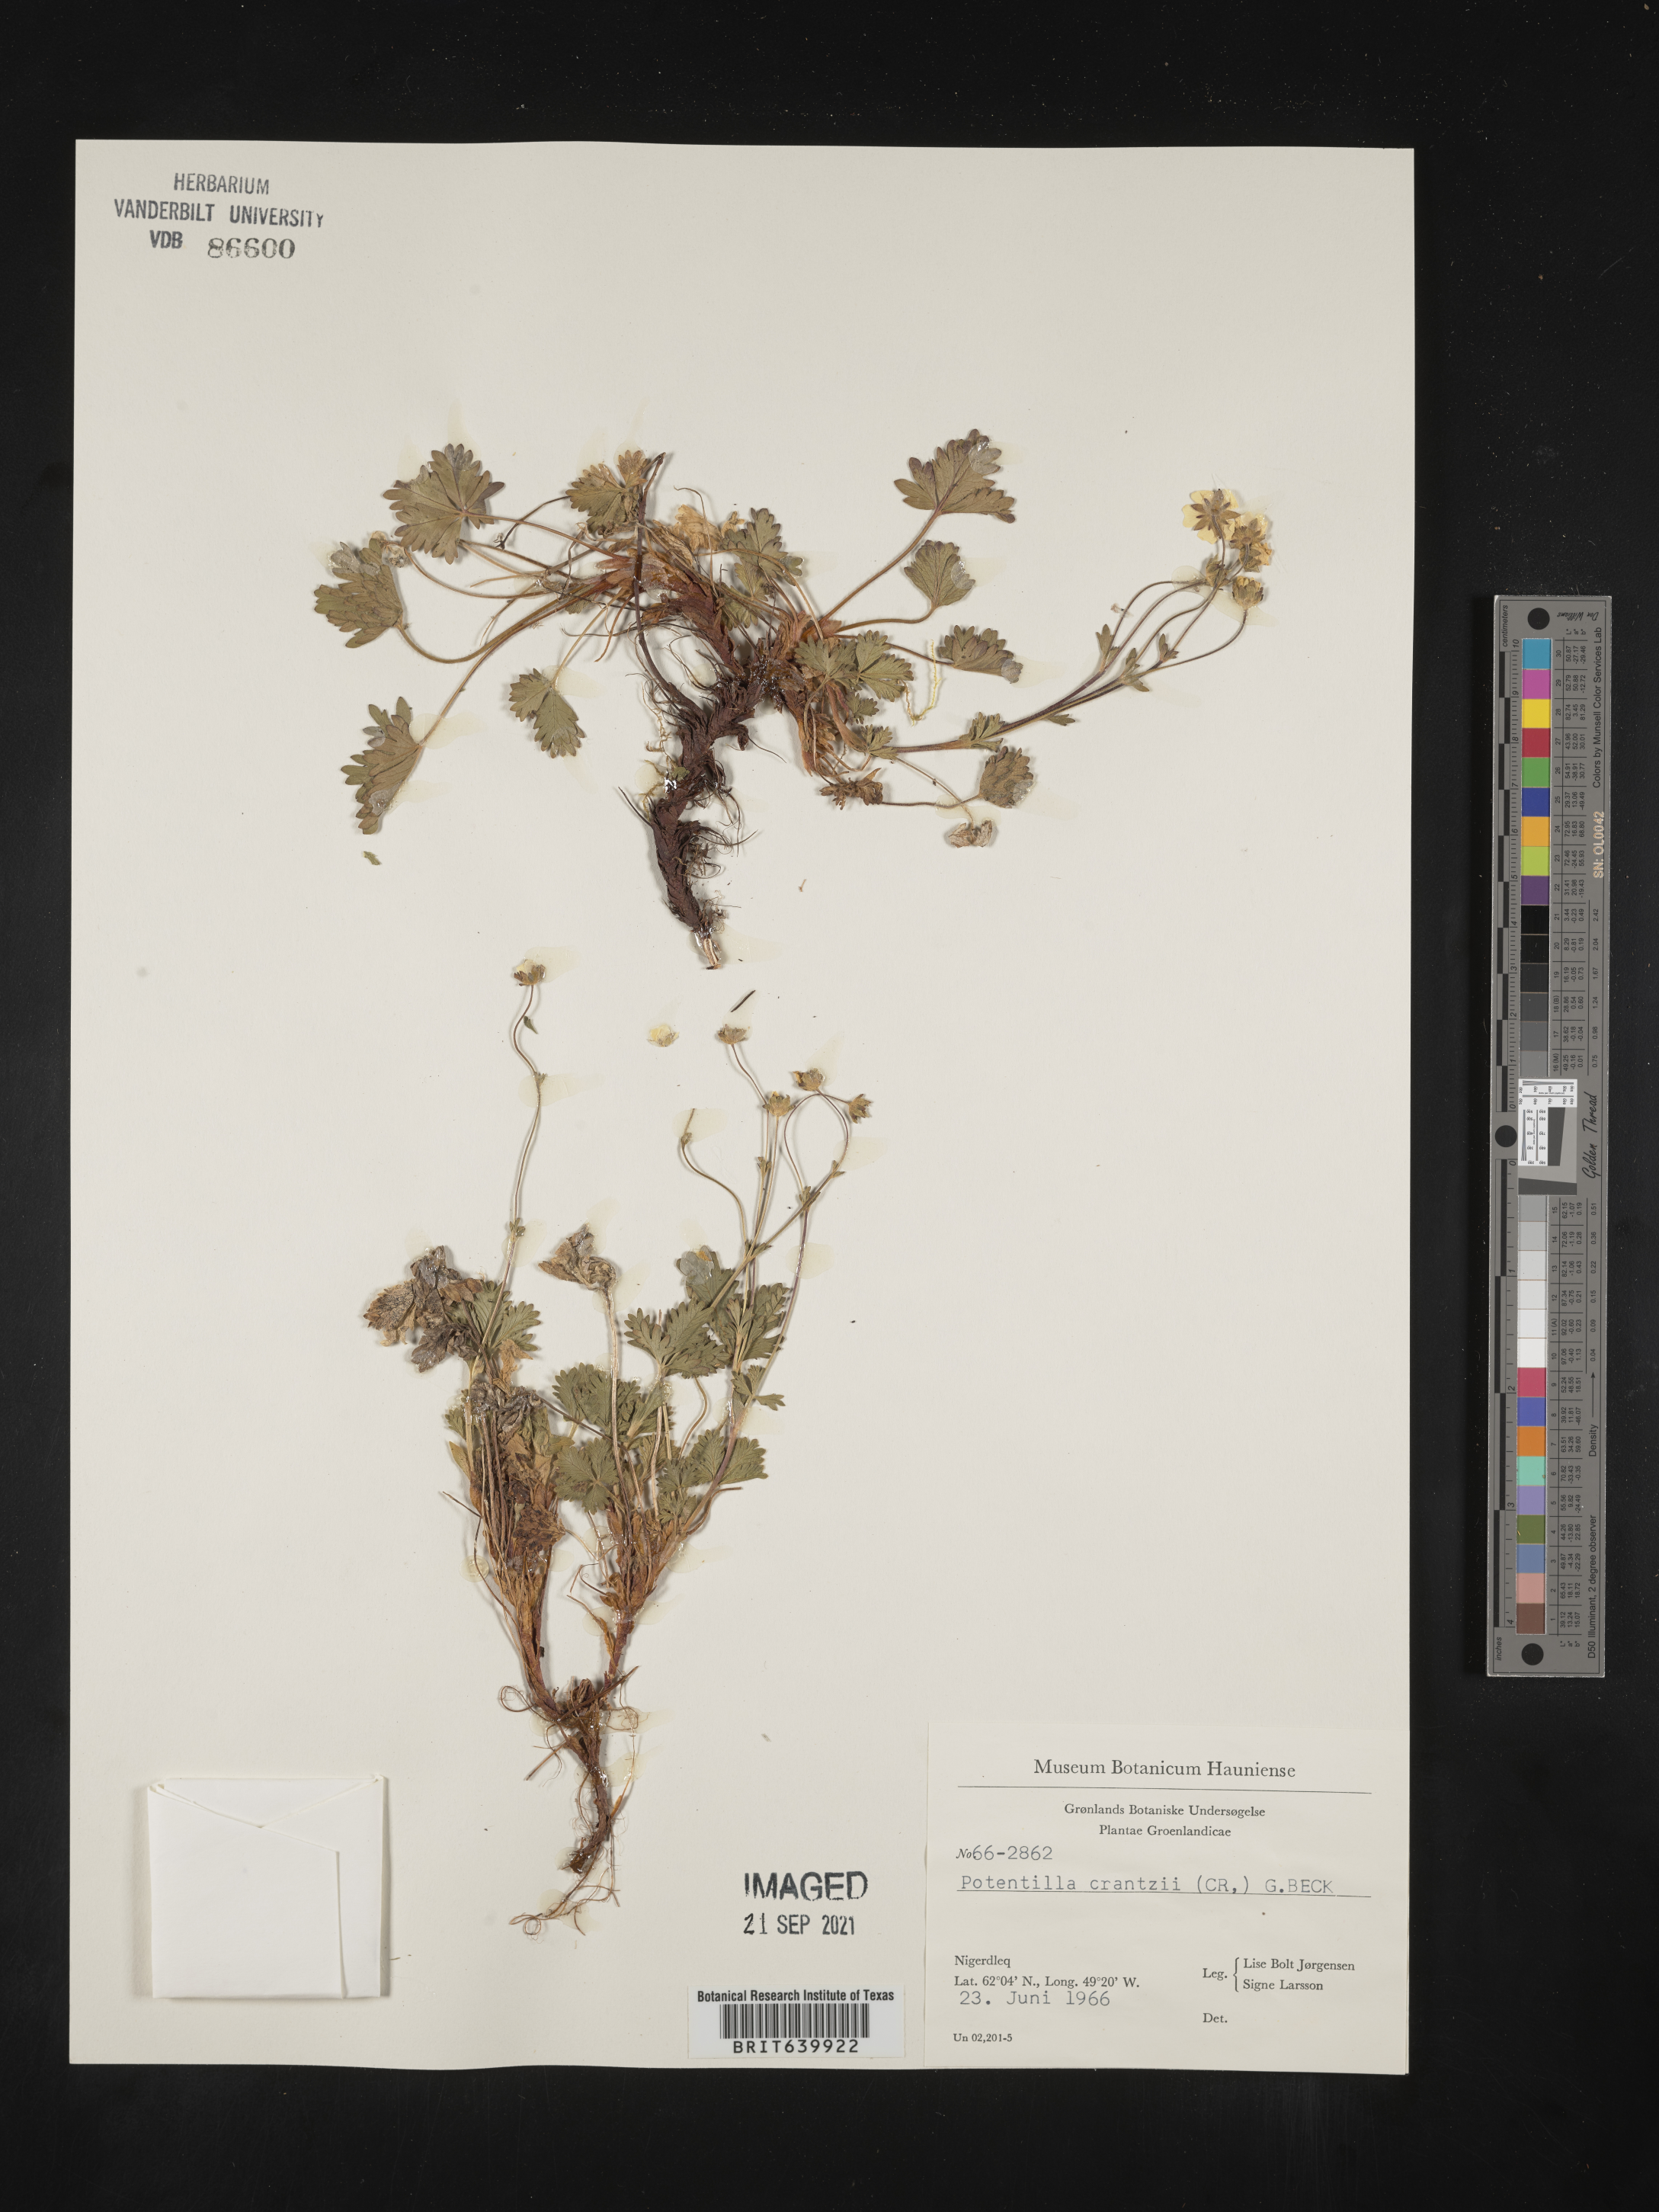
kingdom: Plantae
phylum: Tracheophyta
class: Magnoliopsida
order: Rosales
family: Rosaceae
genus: Potentilla
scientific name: Potentilla
